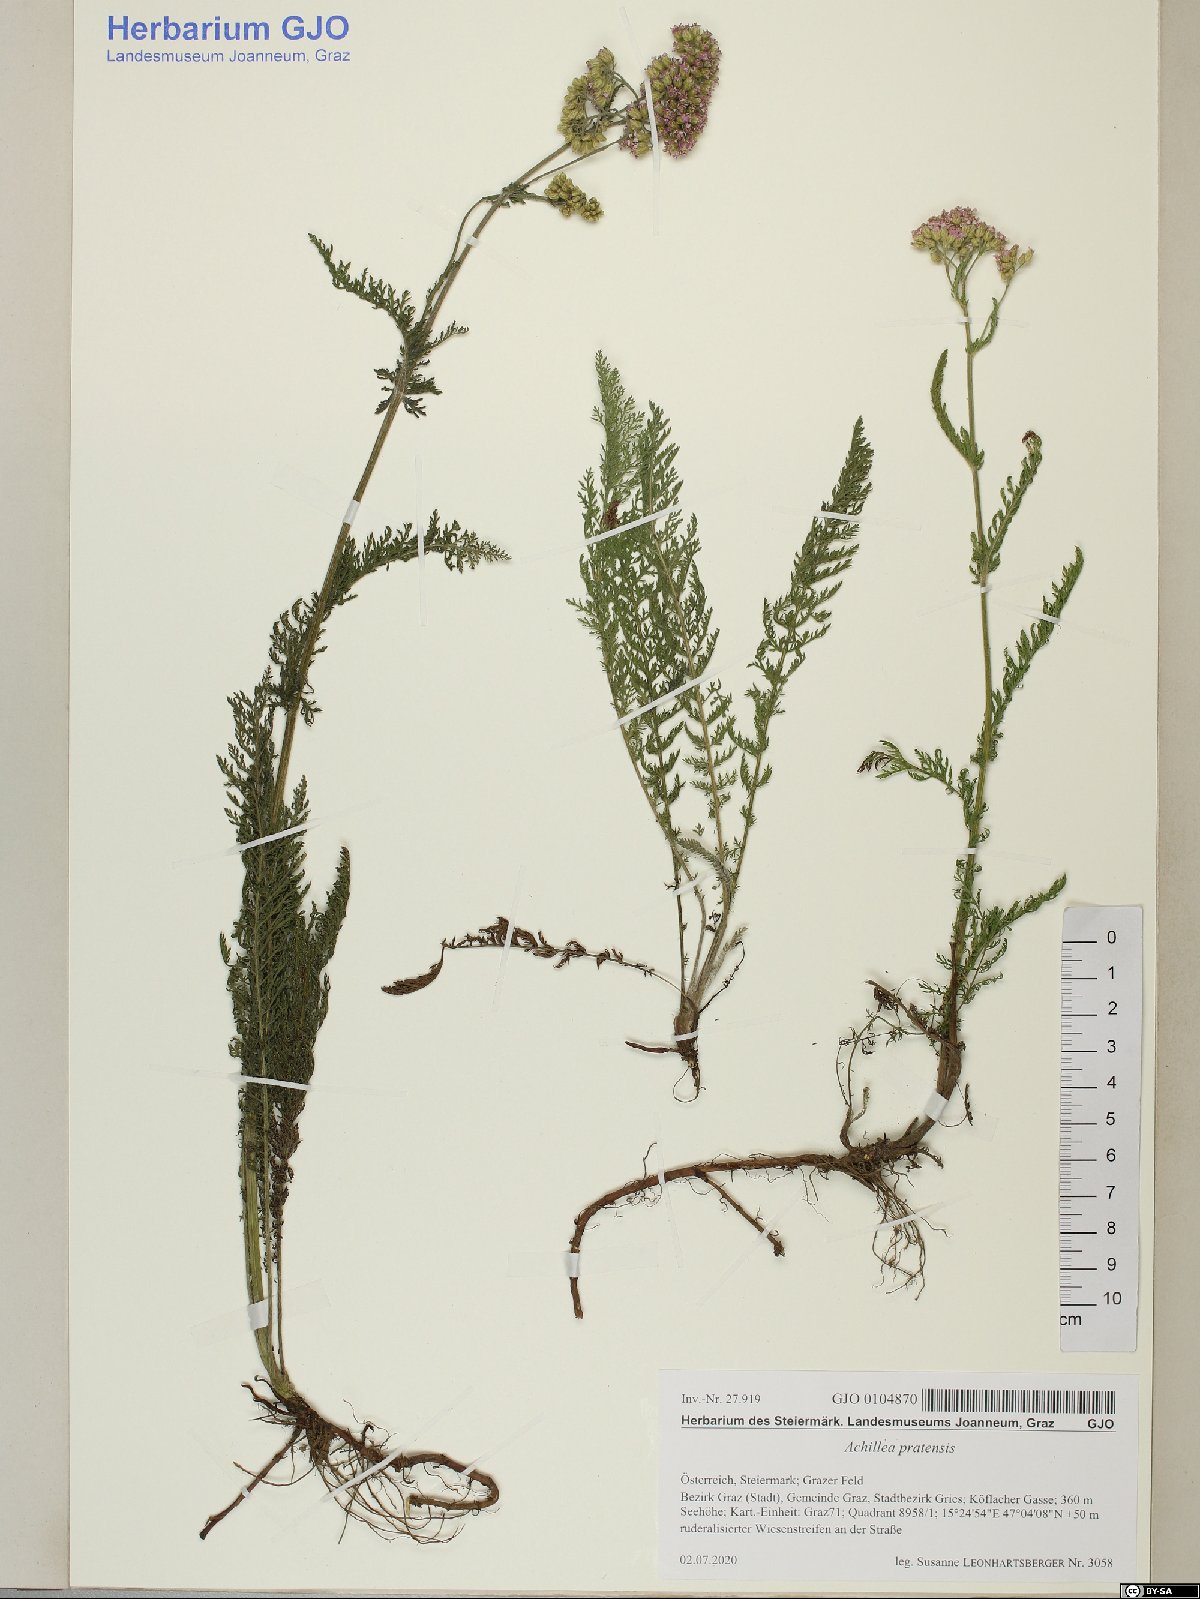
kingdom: Plantae
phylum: Tracheophyta
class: Magnoliopsida
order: Asterales
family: Asteraceae
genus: Achillea
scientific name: Achillea pratensis
